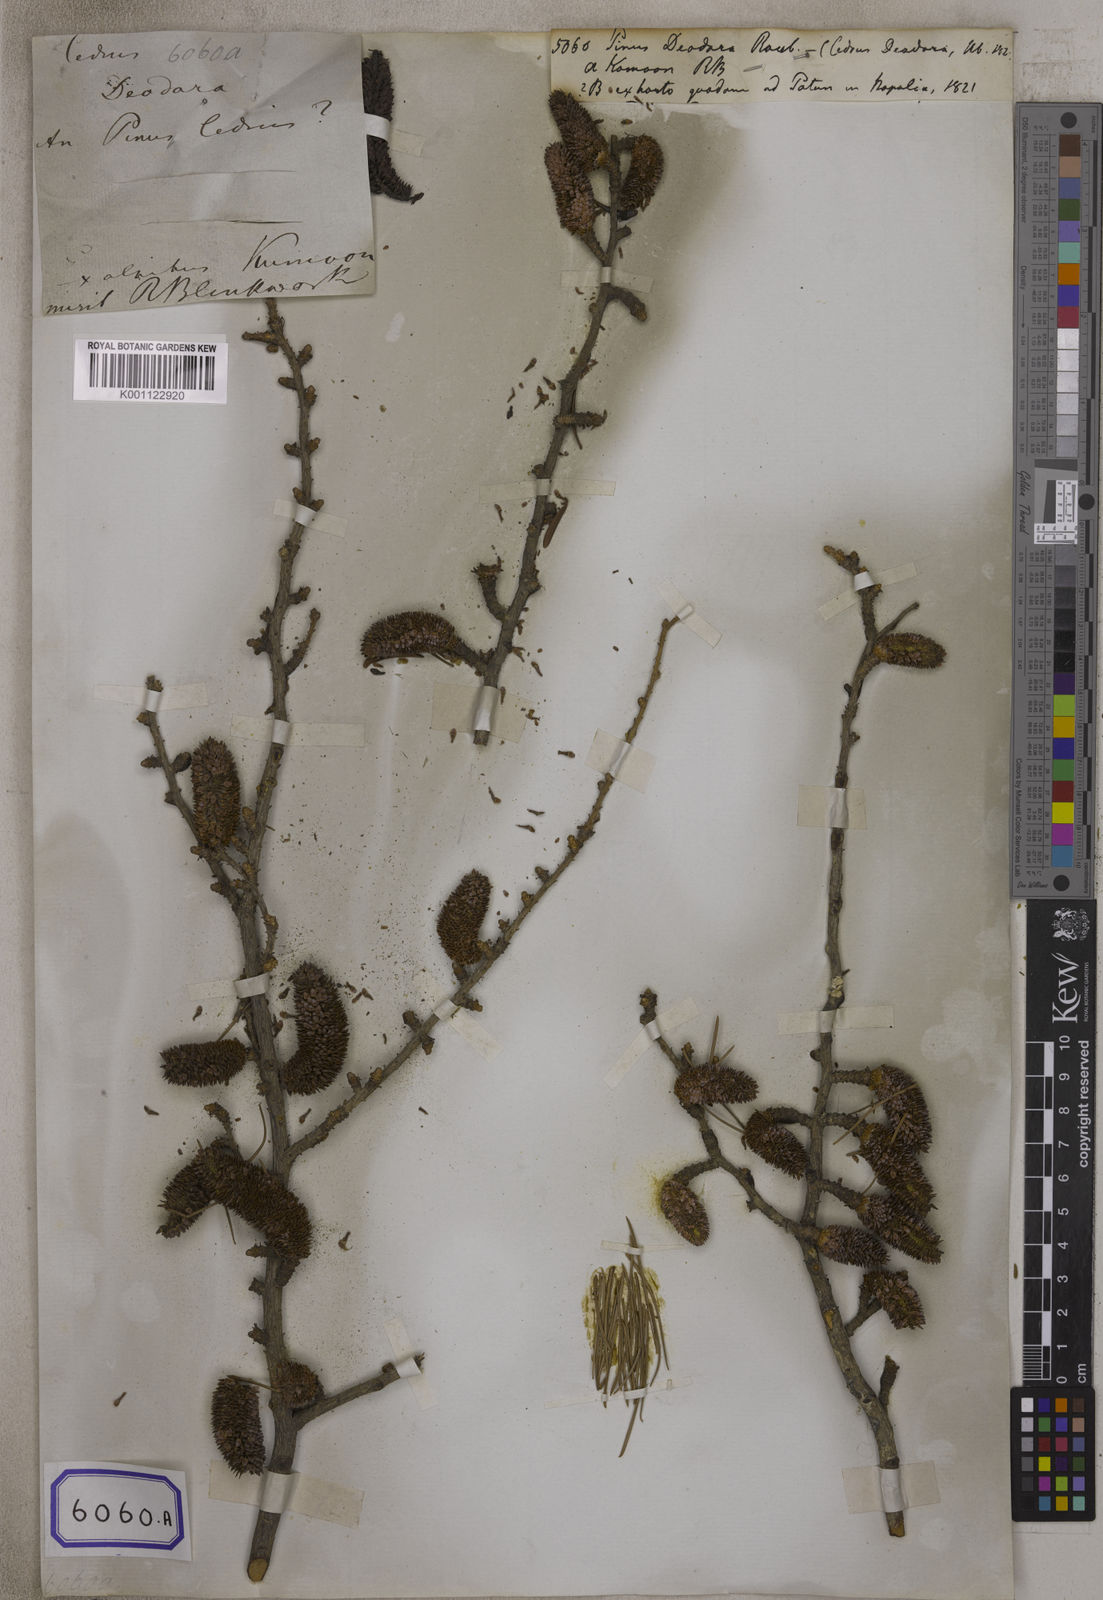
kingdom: Plantae
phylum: Tracheophyta
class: Pinopsida
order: Pinales
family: Pinaceae
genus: Pinus
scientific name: Pinus
